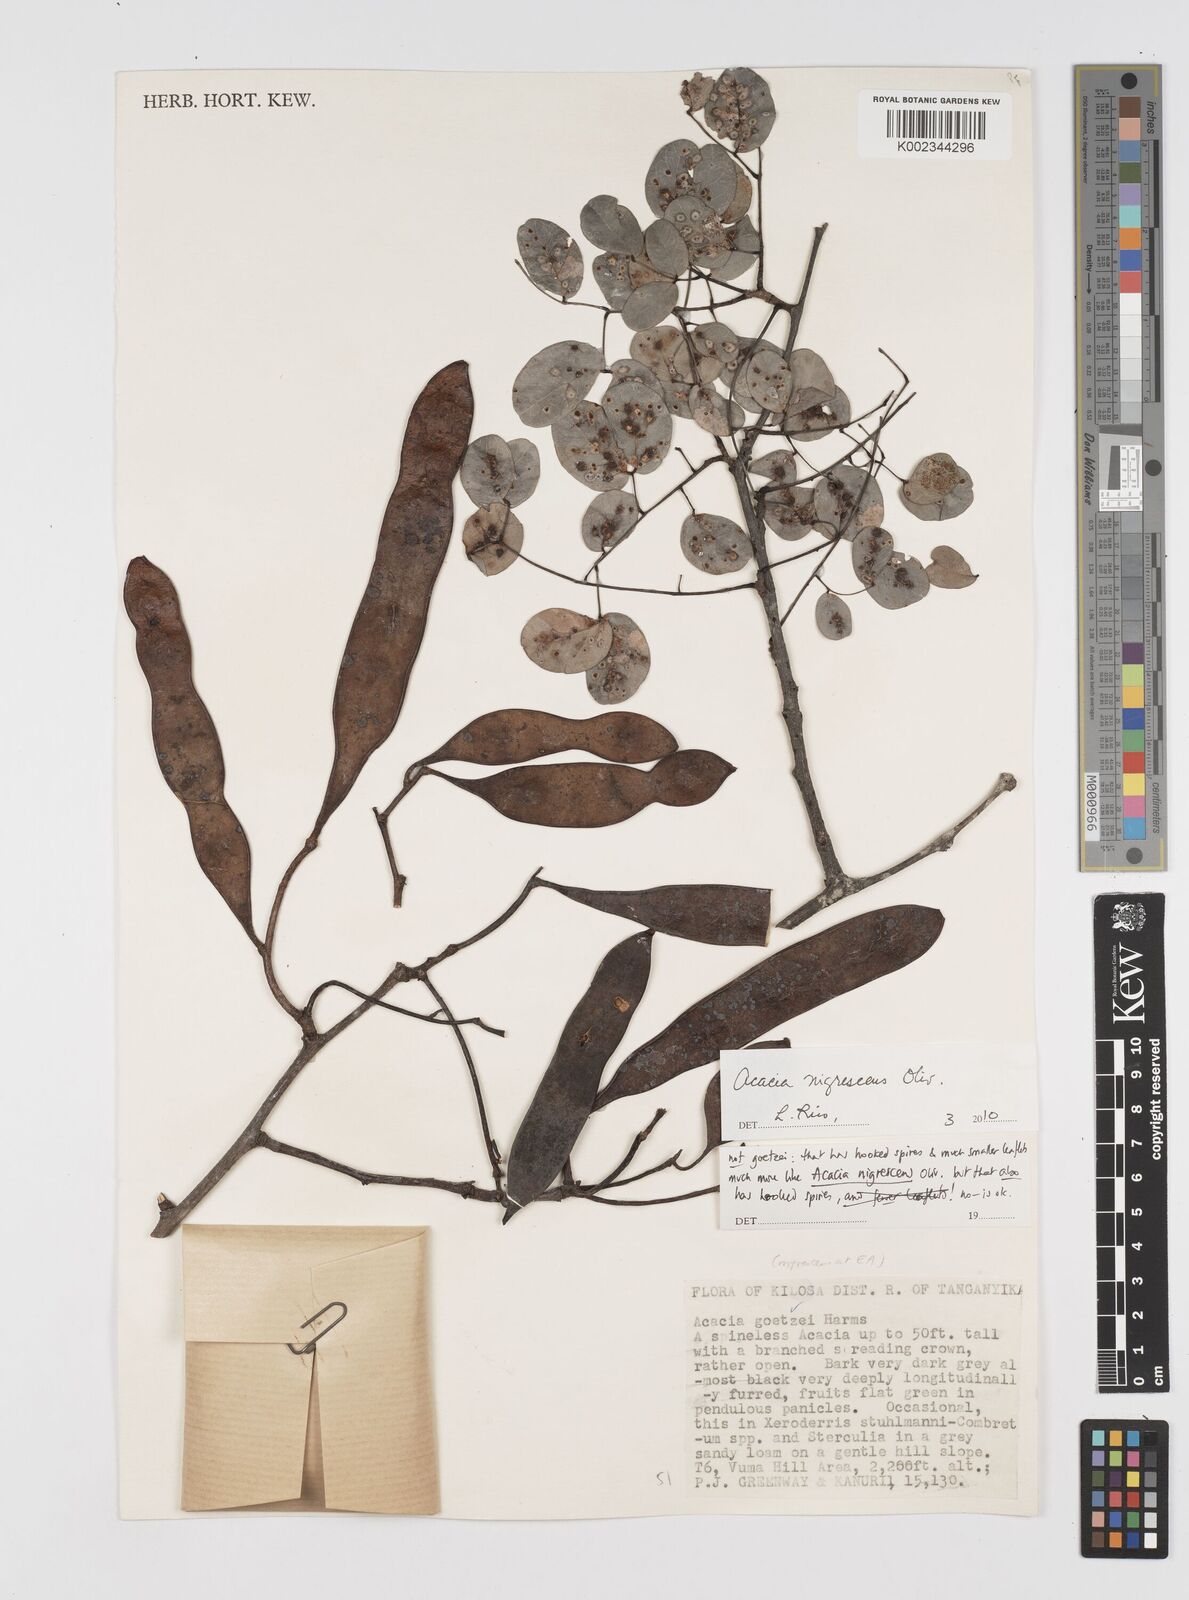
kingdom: Plantae
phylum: Tracheophyta
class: Magnoliopsida
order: Fabales
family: Fabaceae
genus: Senegalia
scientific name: Senegalia nigrescens
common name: Knobthorn
